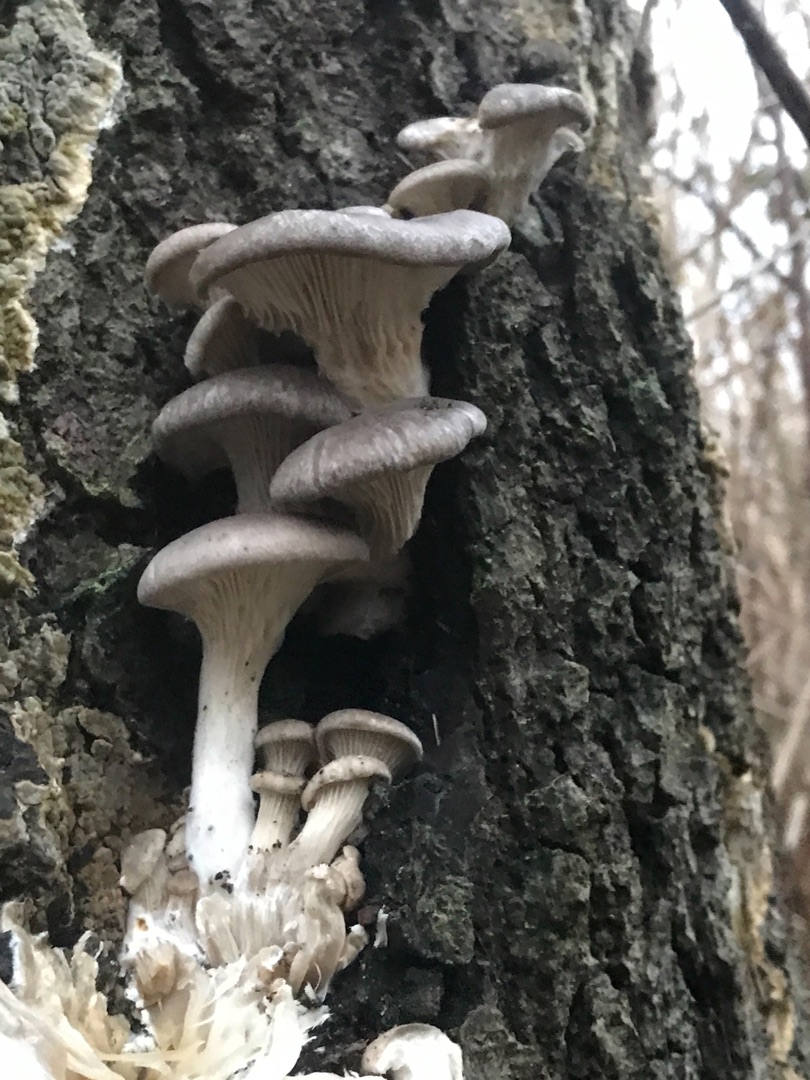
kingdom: Fungi
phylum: Basidiomycota
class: Agaricomycetes
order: Agaricales
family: Pleurotaceae
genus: Pleurotus
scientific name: Pleurotus
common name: Østershat
